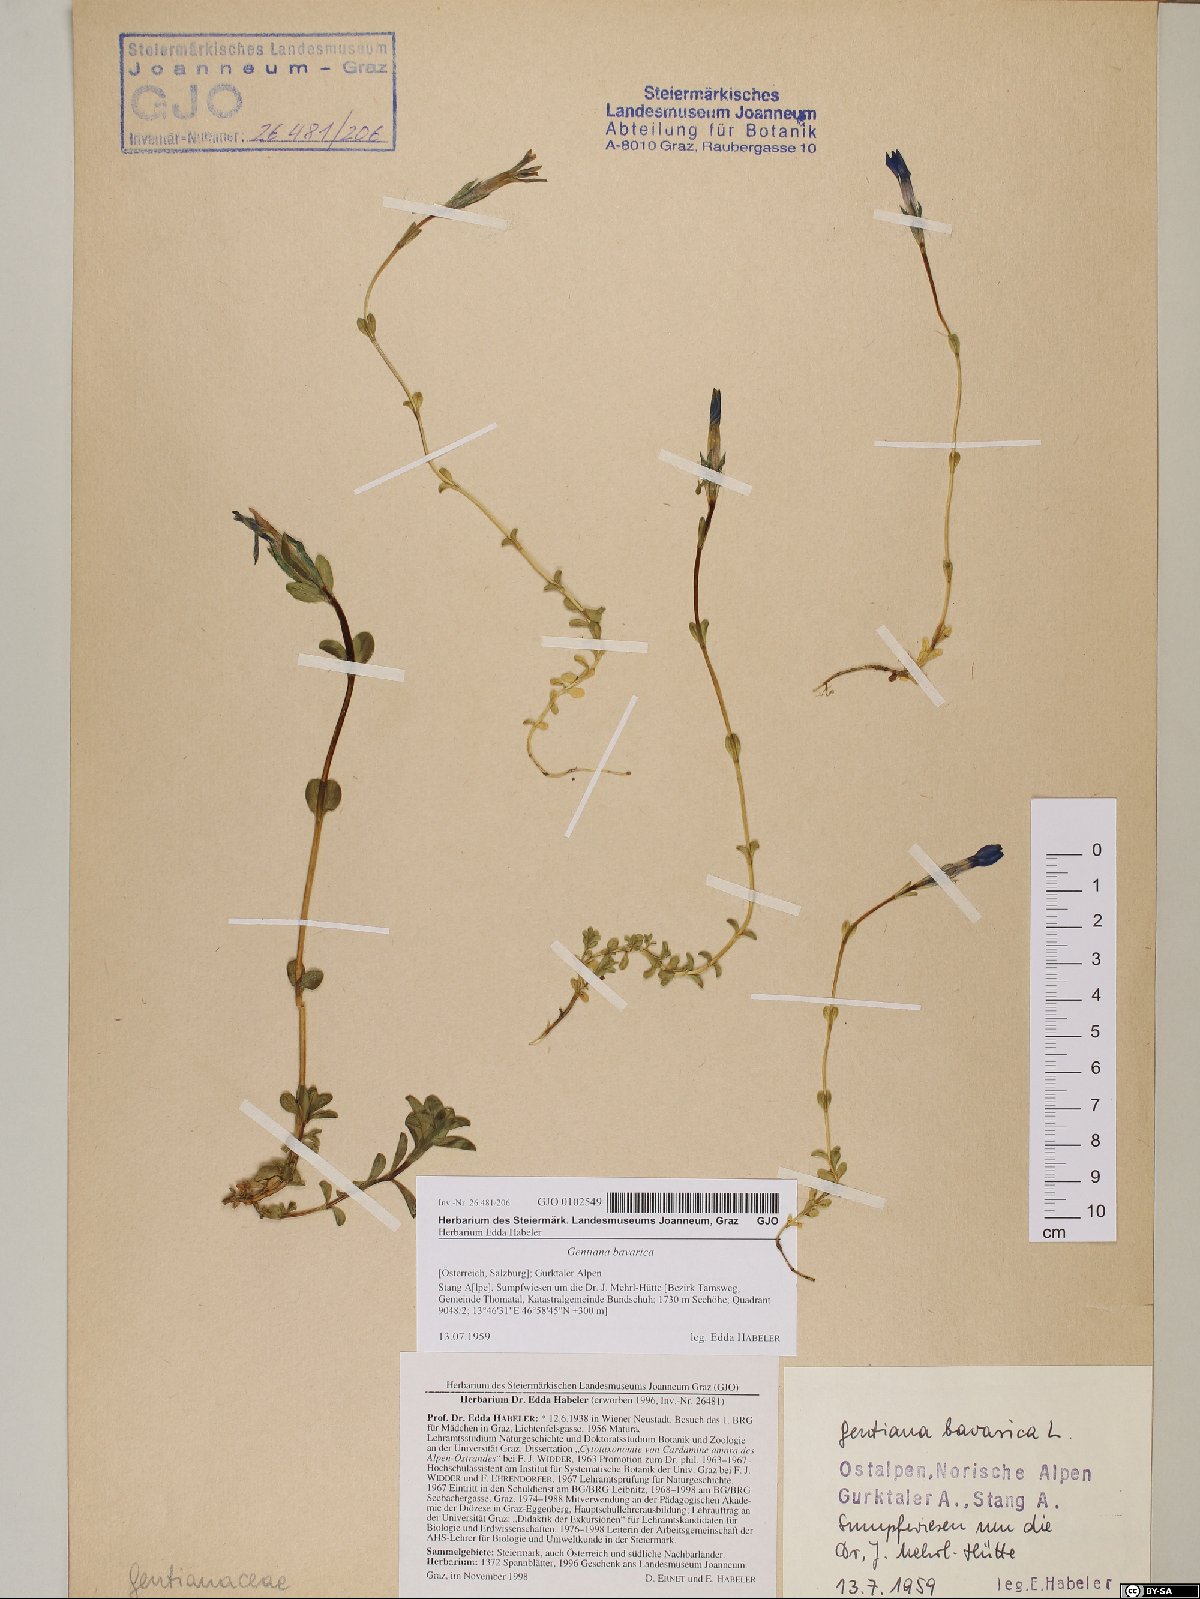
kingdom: Plantae
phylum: Tracheophyta
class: Magnoliopsida
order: Gentianales
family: Gentianaceae
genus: Gentiana
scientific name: Gentiana bavarica
